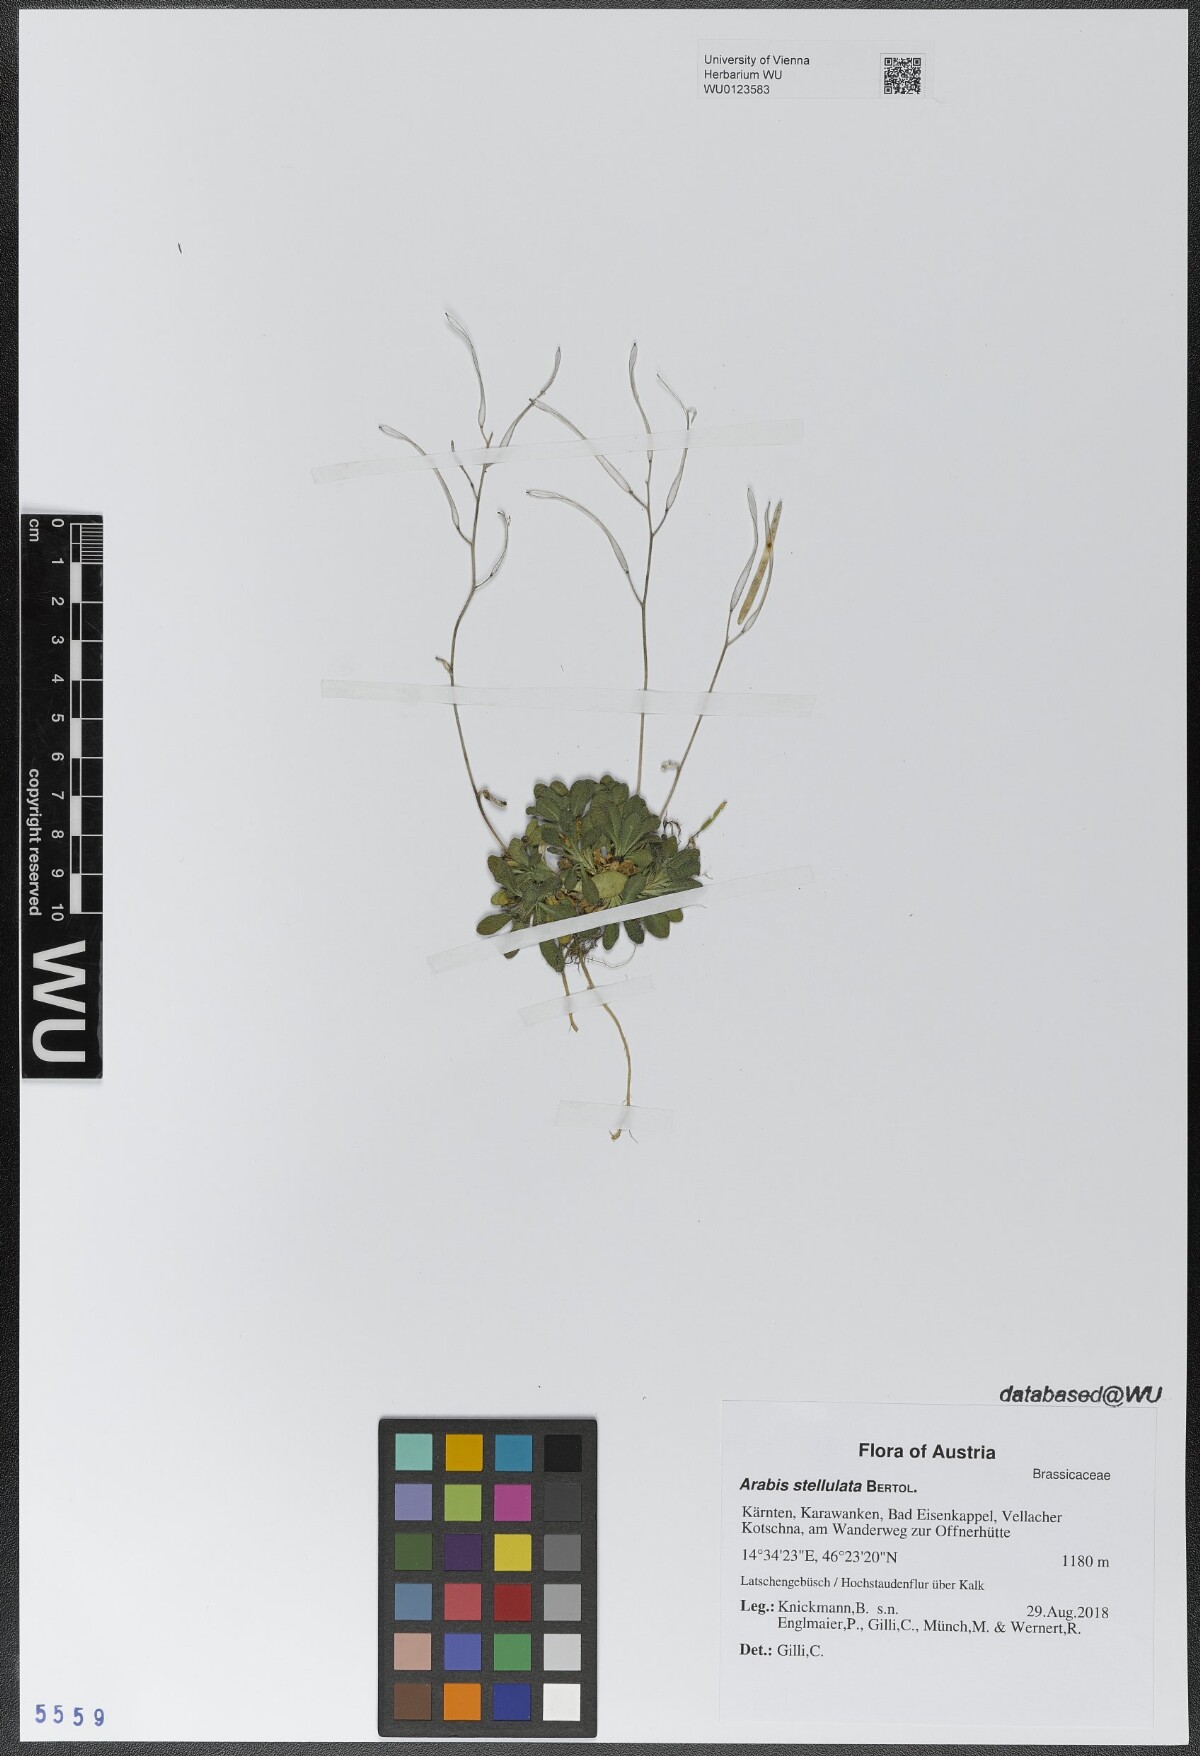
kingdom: Plantae
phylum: Tracheophyta
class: Magnoliopsida
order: Brassicales
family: Brassicaceae
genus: Arabis
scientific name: Arabis stellulata
